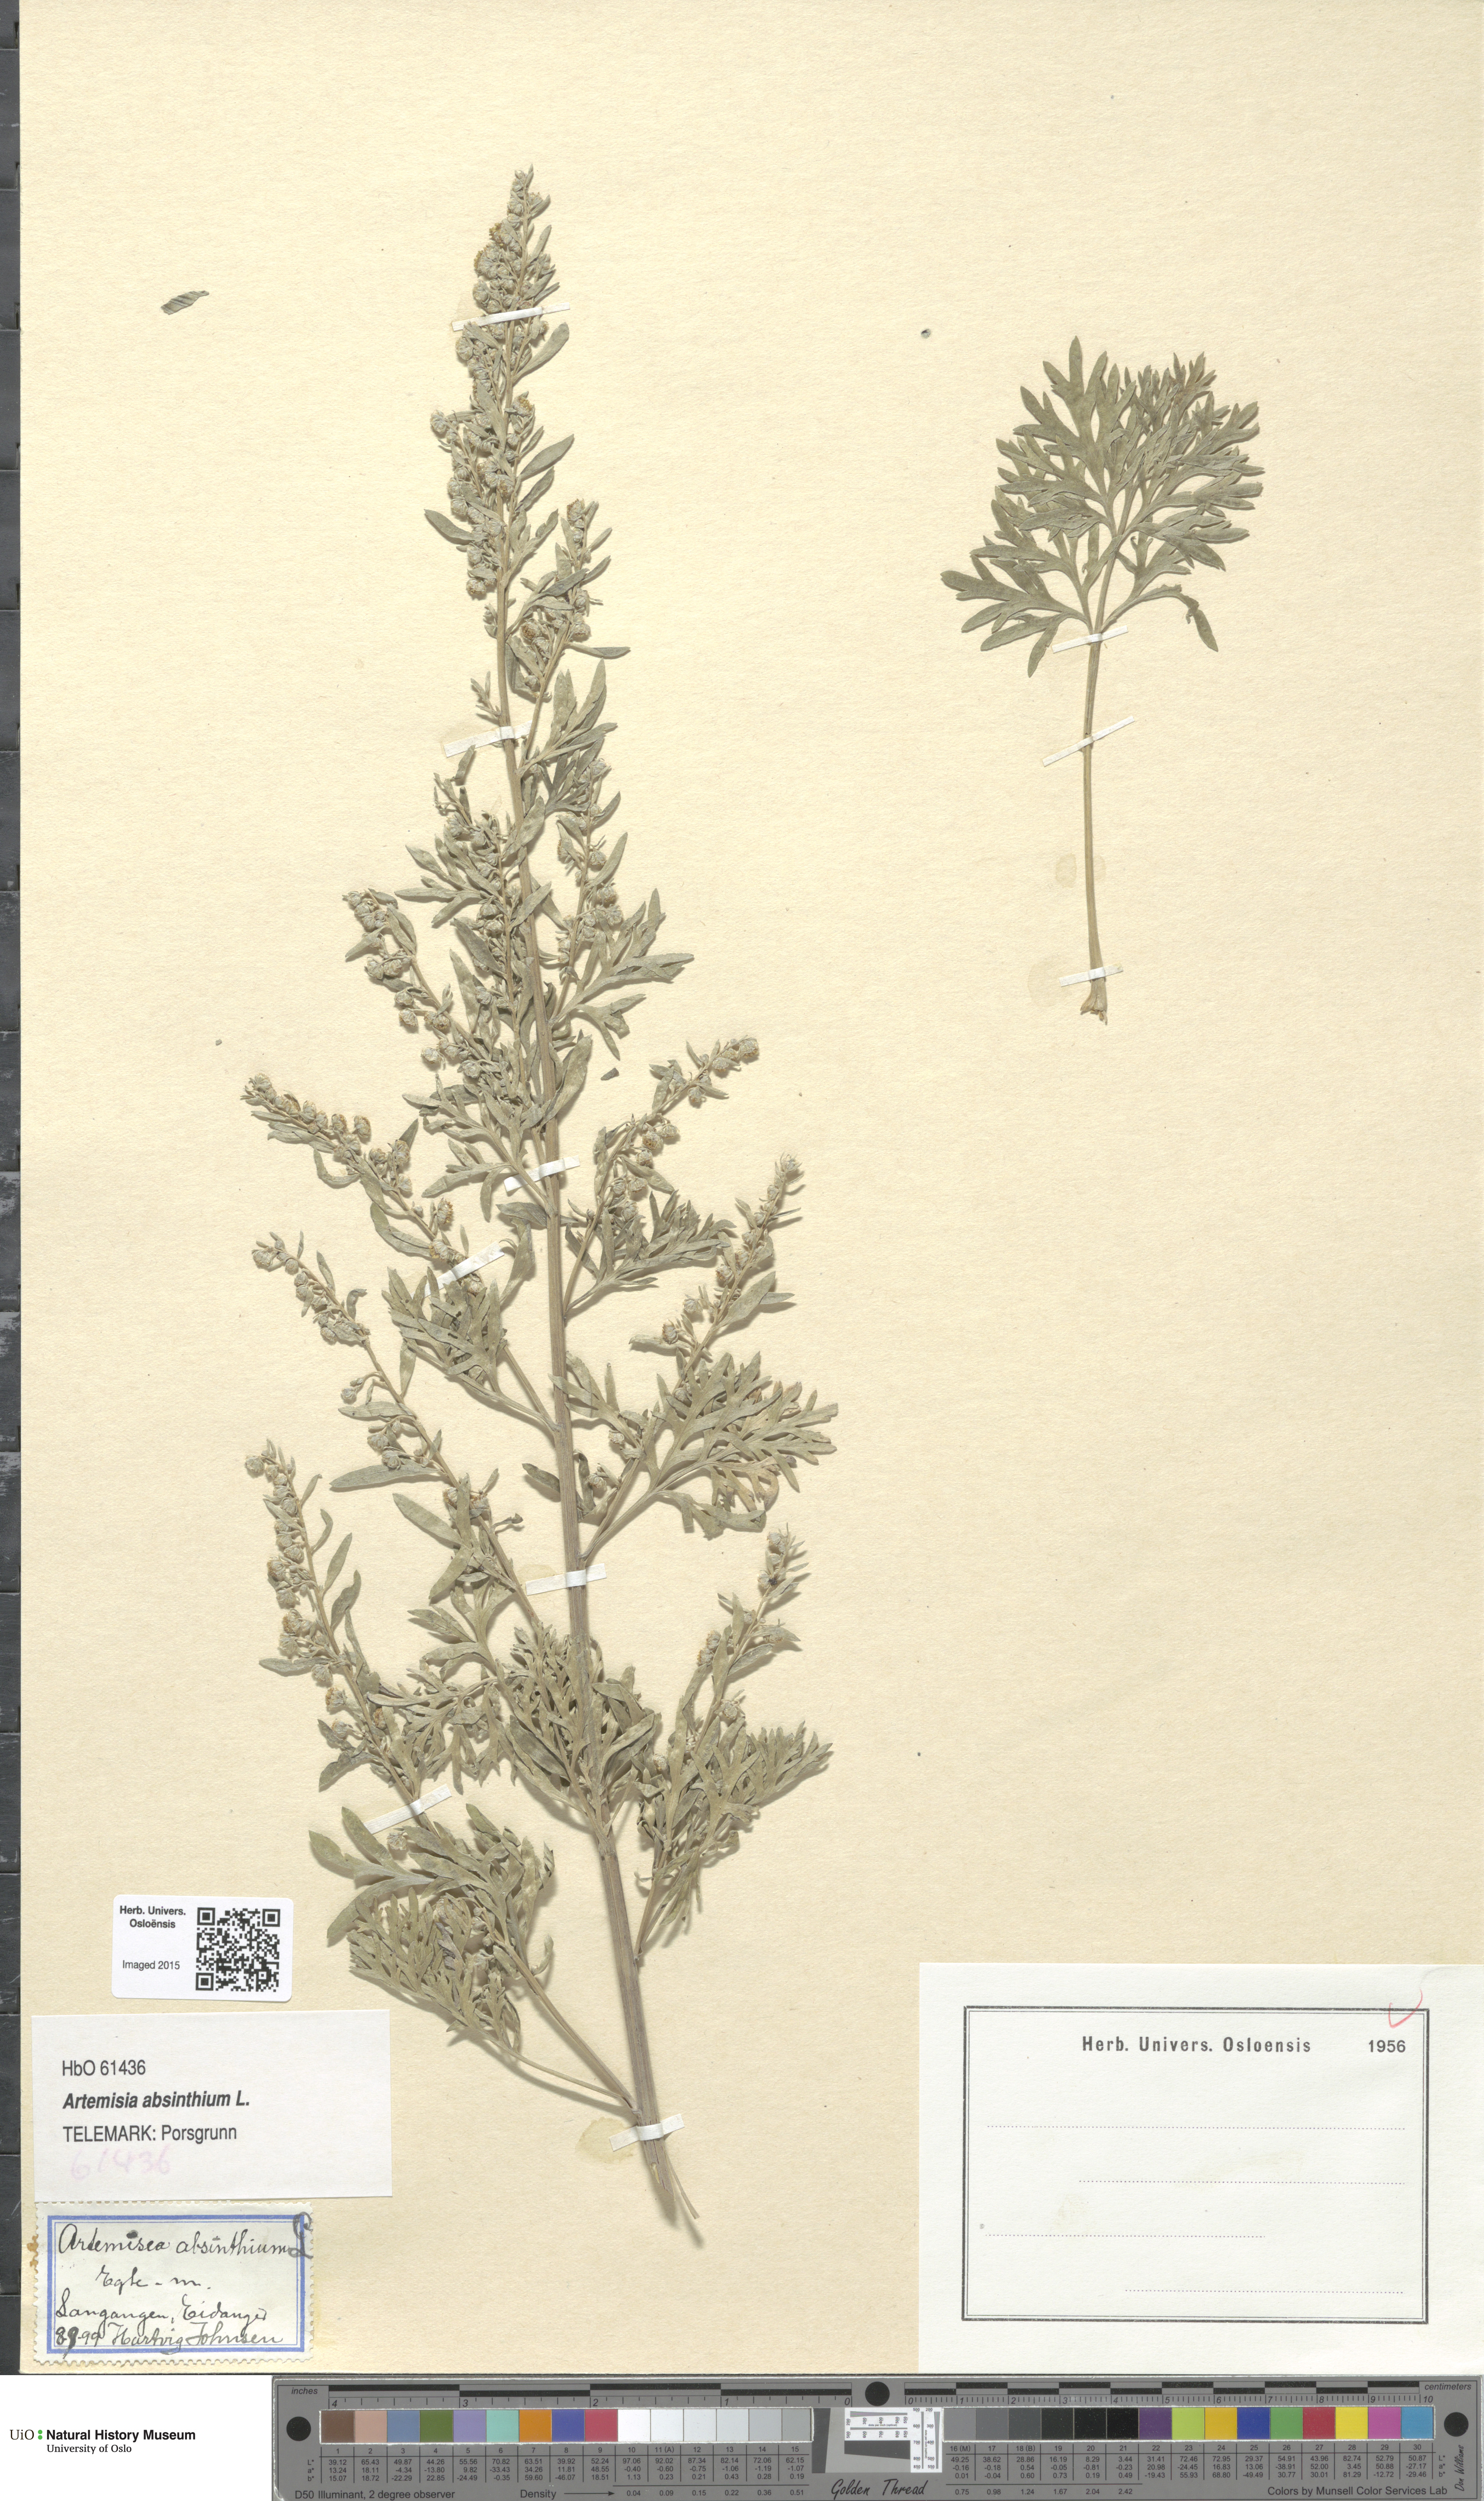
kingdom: Plantae
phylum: Tracheophyta
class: Magnoliopsida
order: Asterales
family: Asteraceae
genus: Artemisia
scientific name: Artemisia absinthium
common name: Wormwood
